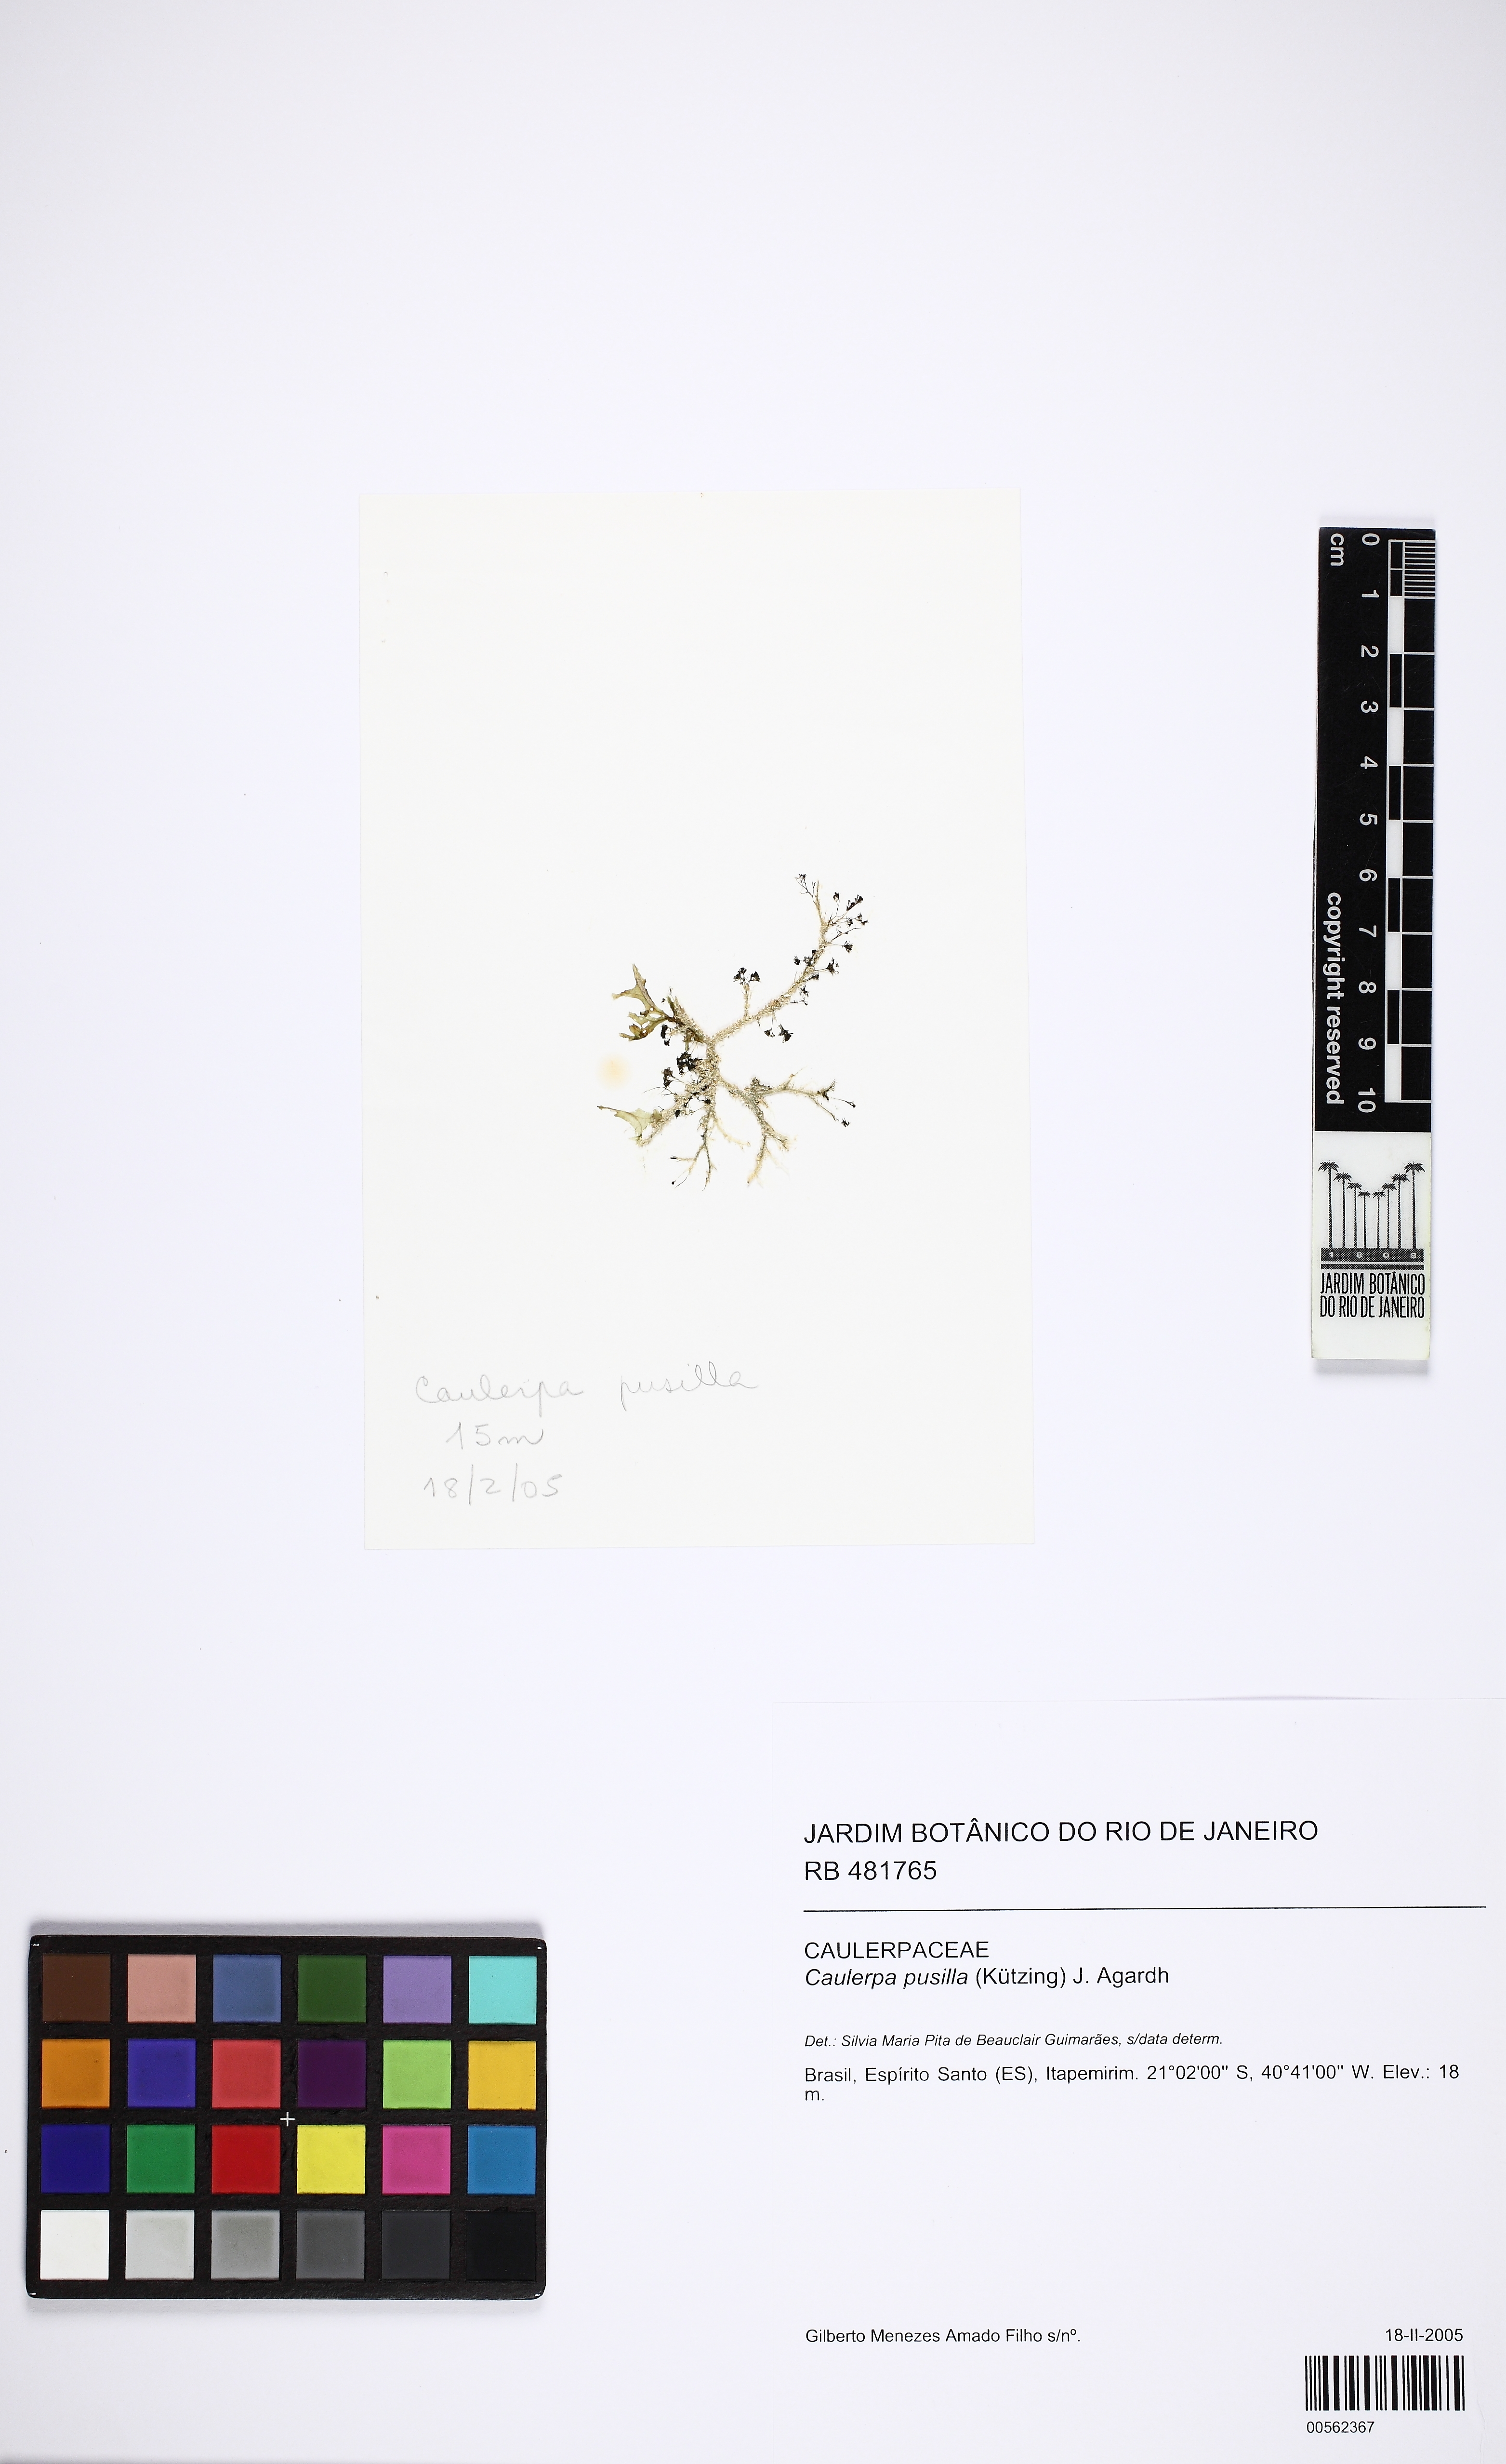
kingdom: Plantae
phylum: Chlorophyta
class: Ulvophyceae
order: Bryopsidales
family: Caulerpaceae
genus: Caulerpa
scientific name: Caulerpa pusilla
